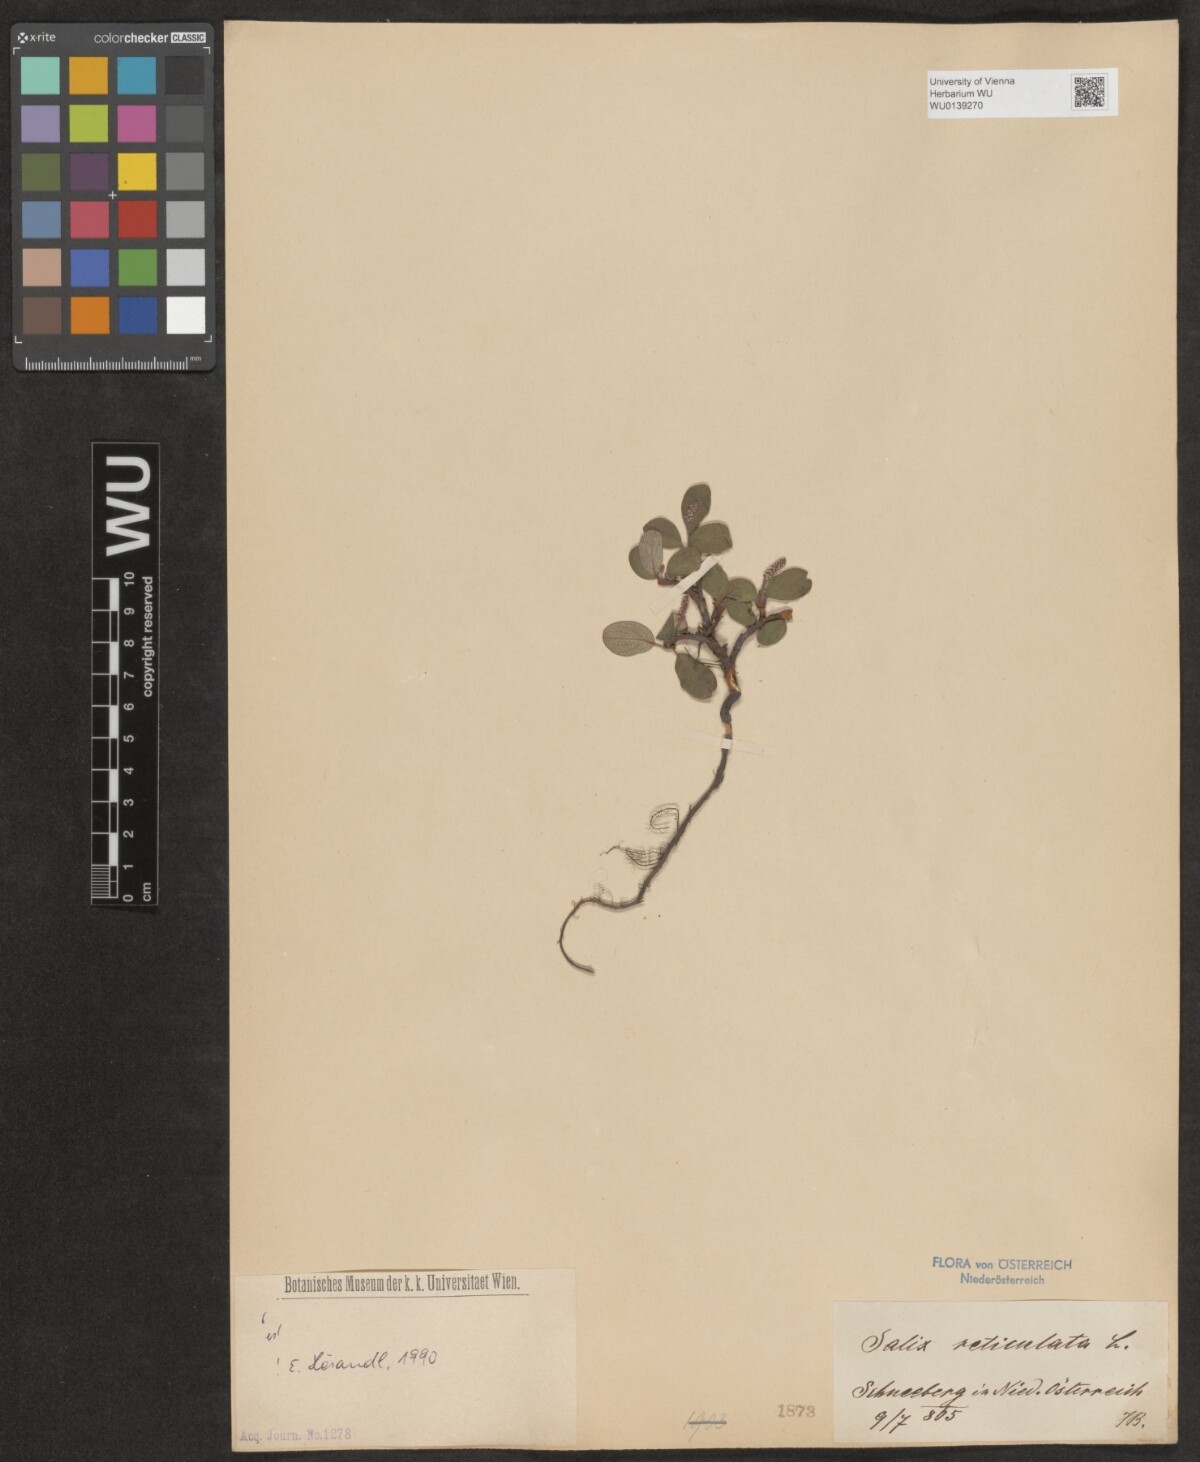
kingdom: Plantae
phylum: Tracheophyta
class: Magnoliopsida
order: Malpighiales
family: Salicaceae
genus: Salix
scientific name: Salix reticulata
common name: Net-leaved willow
